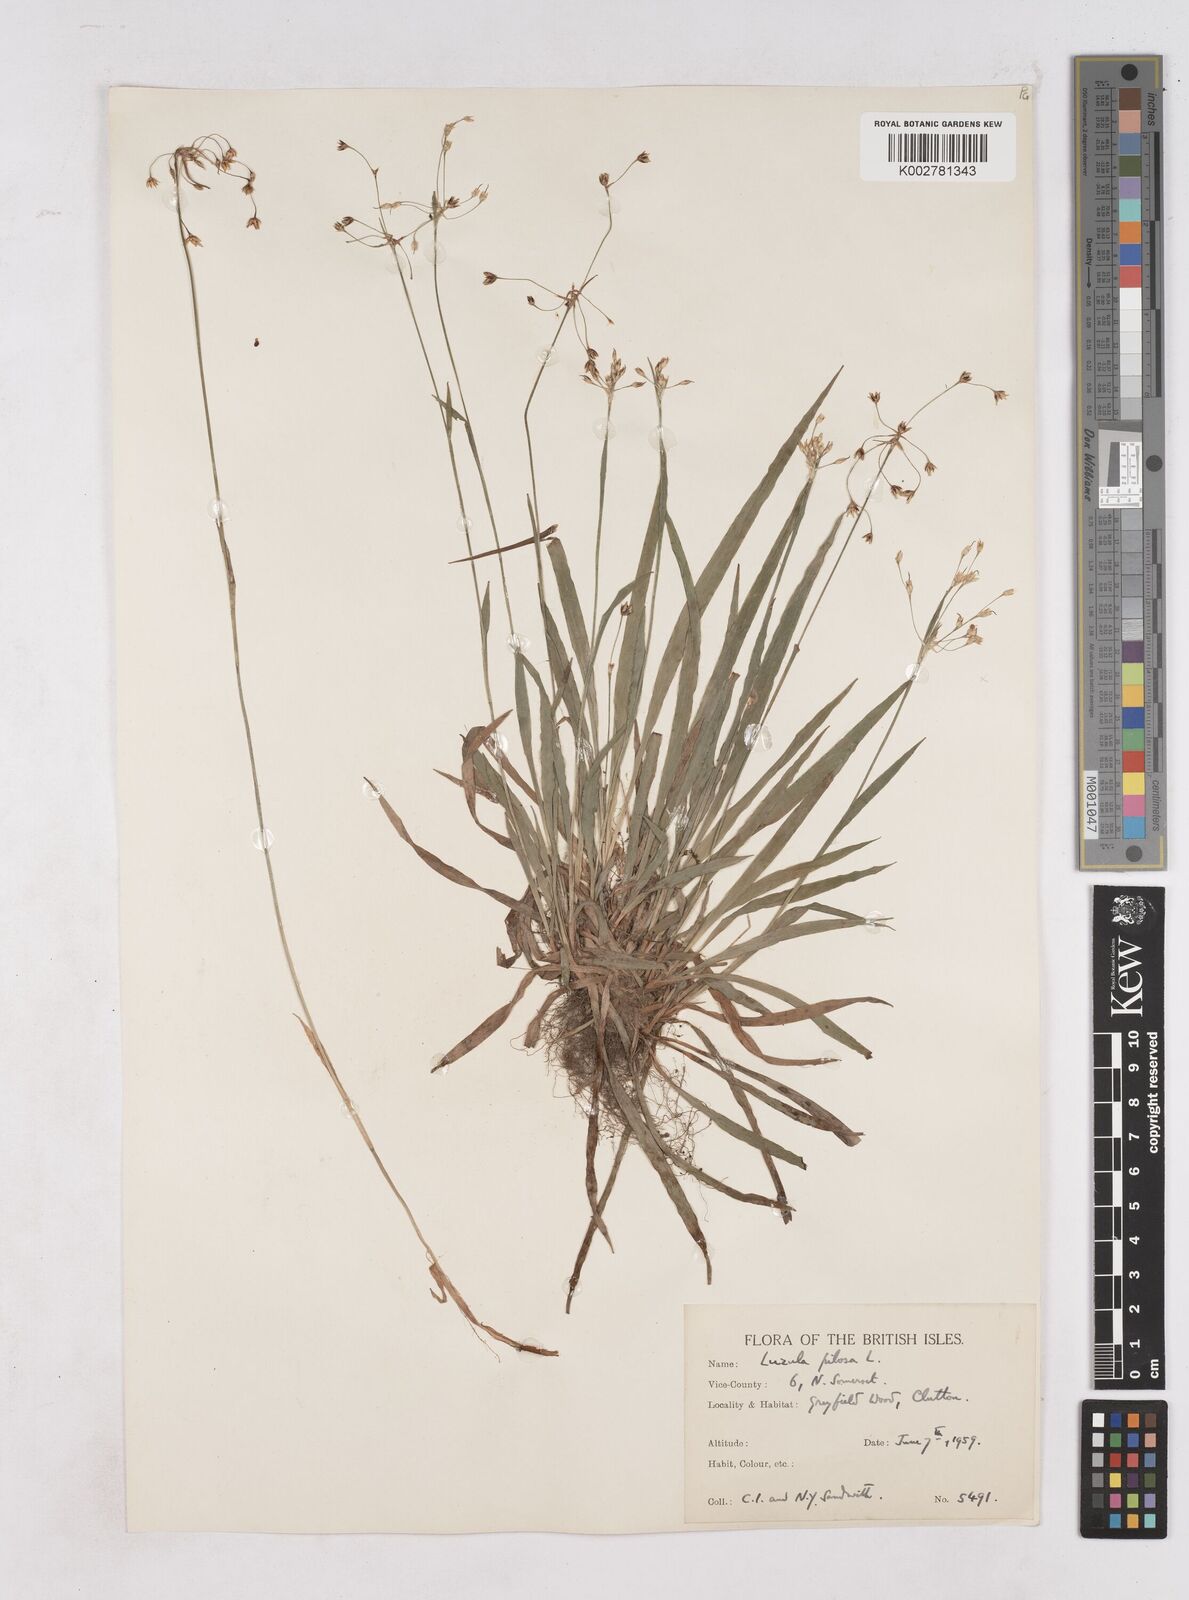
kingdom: Plantae
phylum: Tracheophyta
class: Liliopsida
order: Poales
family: Juncaceae
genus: Luzula
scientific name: Luzula pilosa
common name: Hairy wood-rush
